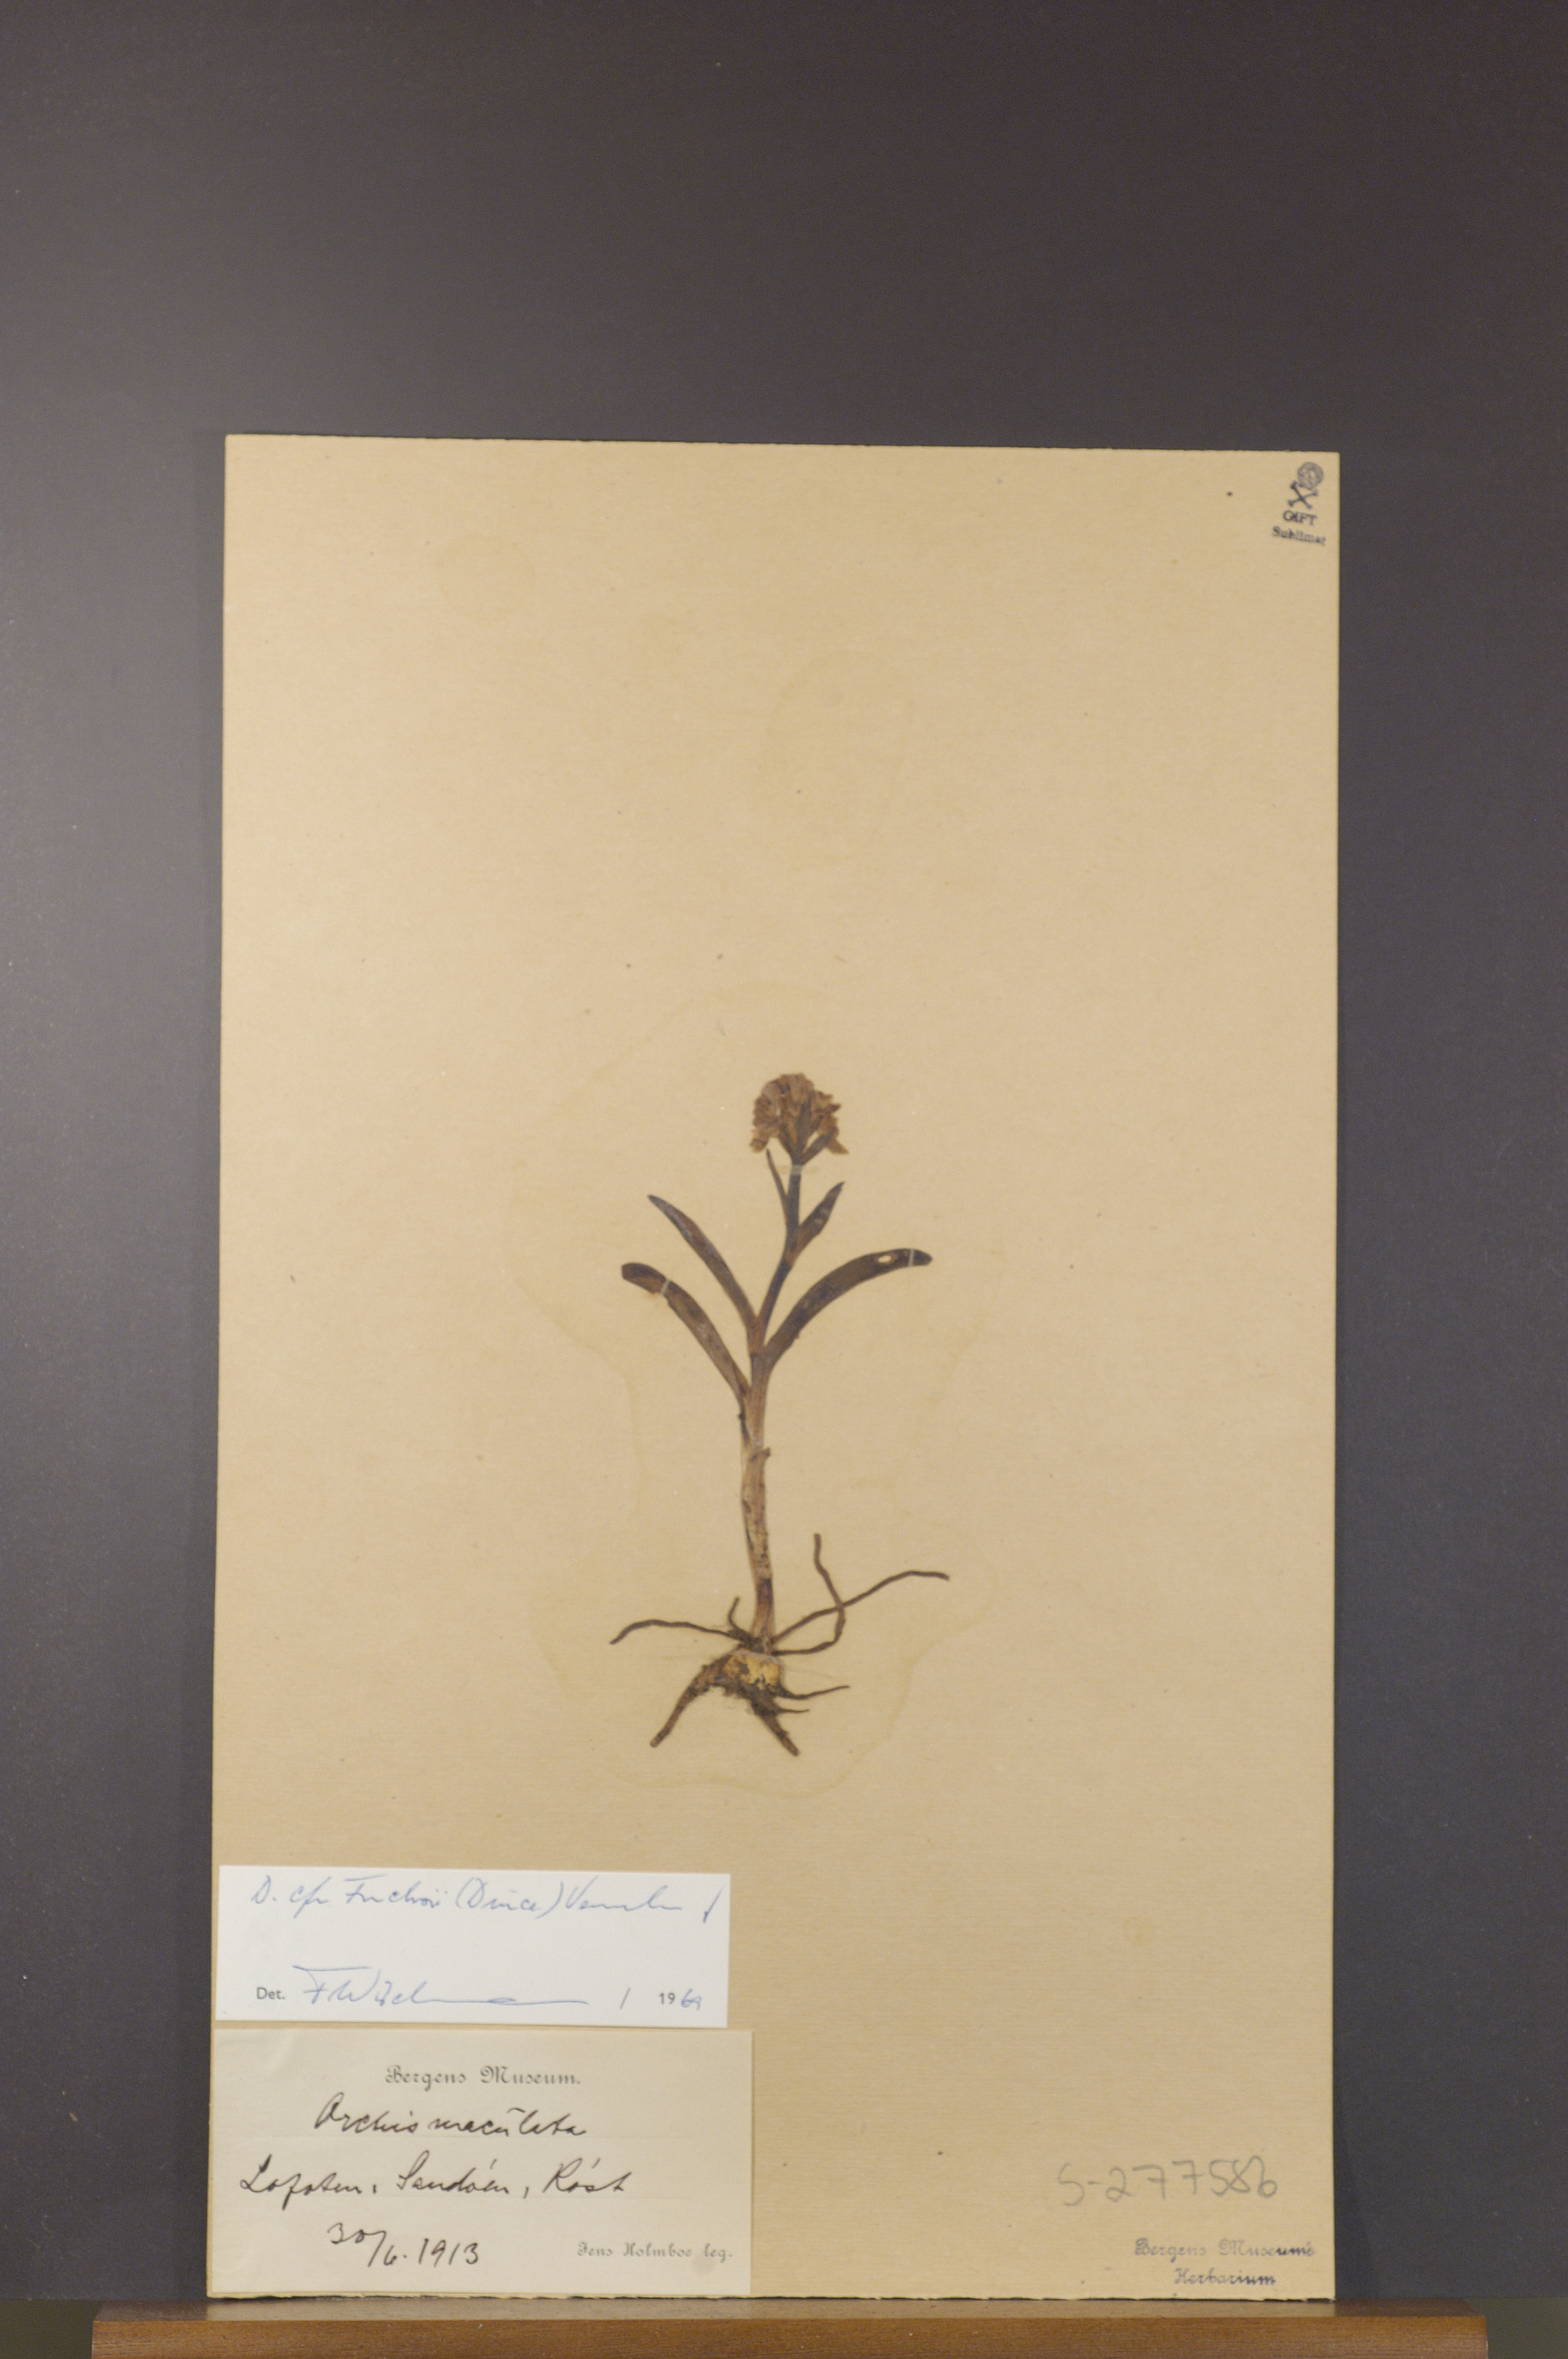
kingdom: Plantae
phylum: Tracheophyta
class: Liliopsida
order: Asparagales
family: Orchidaceae
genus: Dactylorhiza
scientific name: Dactylorhiza maculata
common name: Heath spotted-orchid
